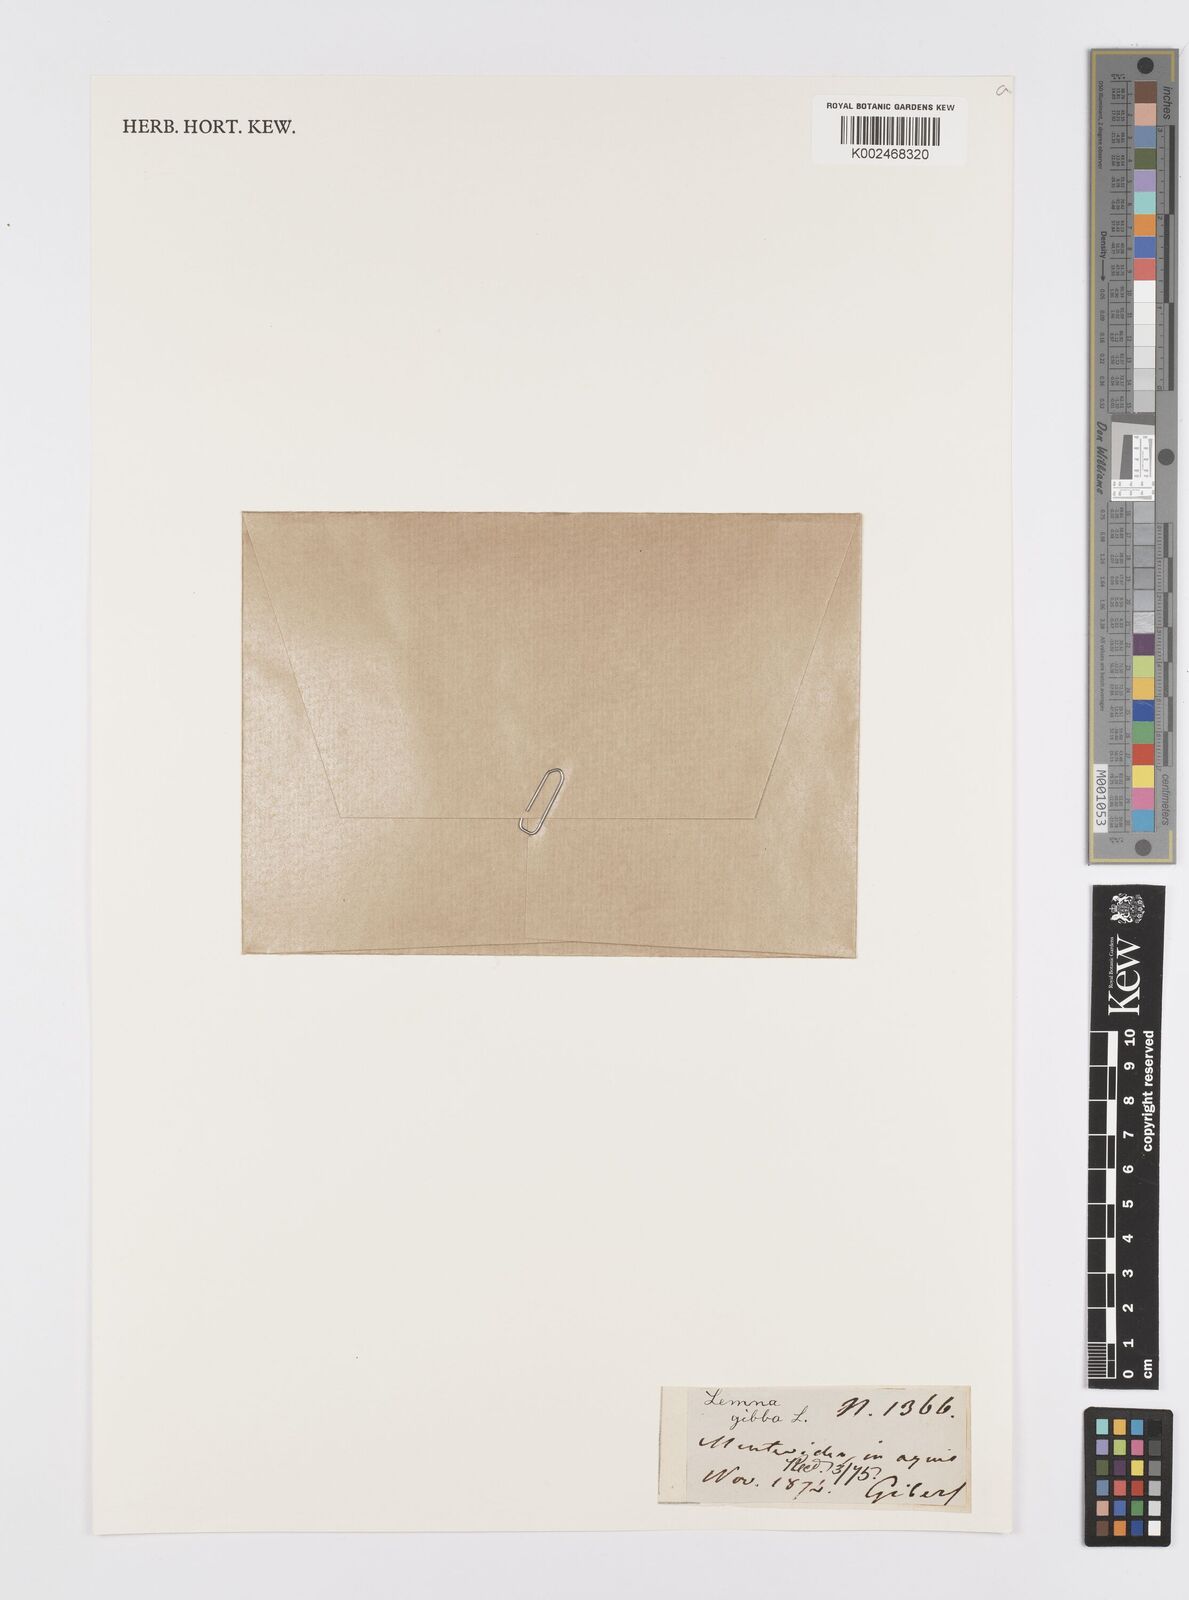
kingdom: Plantae
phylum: Tracheophyta
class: Liliopsida
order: Alismatales
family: Araceae
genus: Lemna
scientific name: Lemna gibba
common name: Fat duckweed
